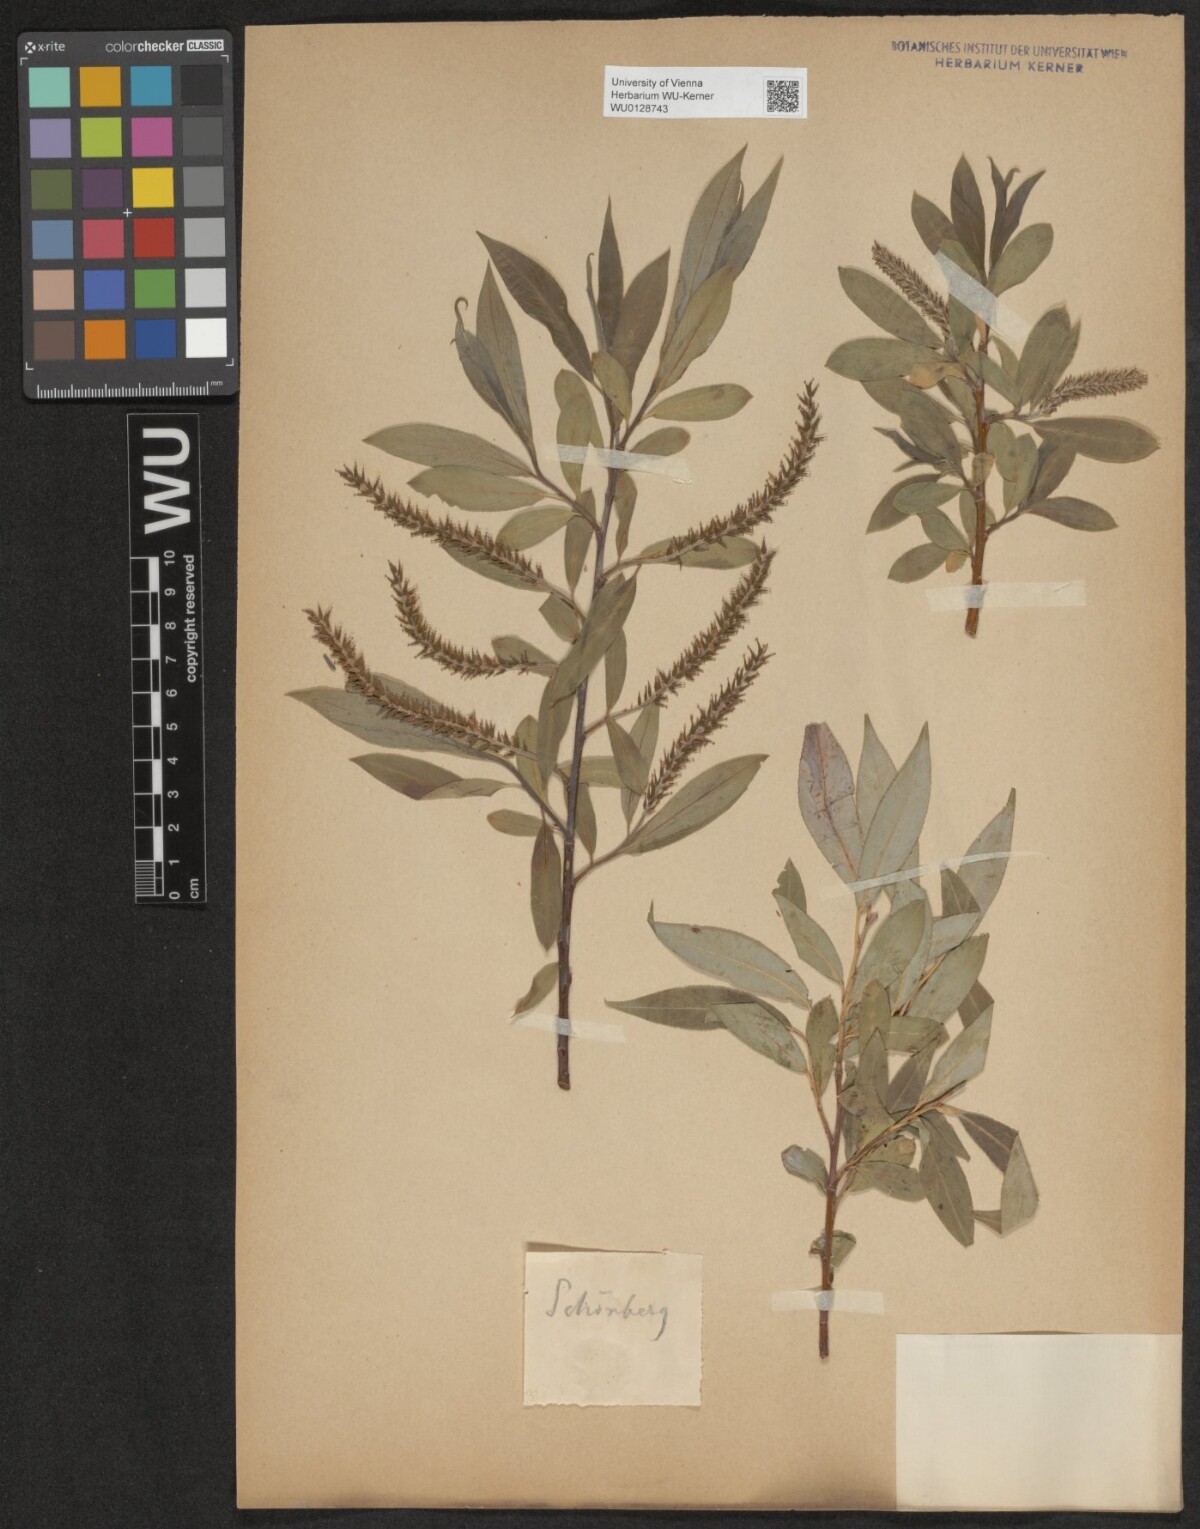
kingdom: Plantae
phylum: Tracheophyta
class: Magnoliopsida
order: Malpighiales
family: Salicaceae
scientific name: Salicaceae
